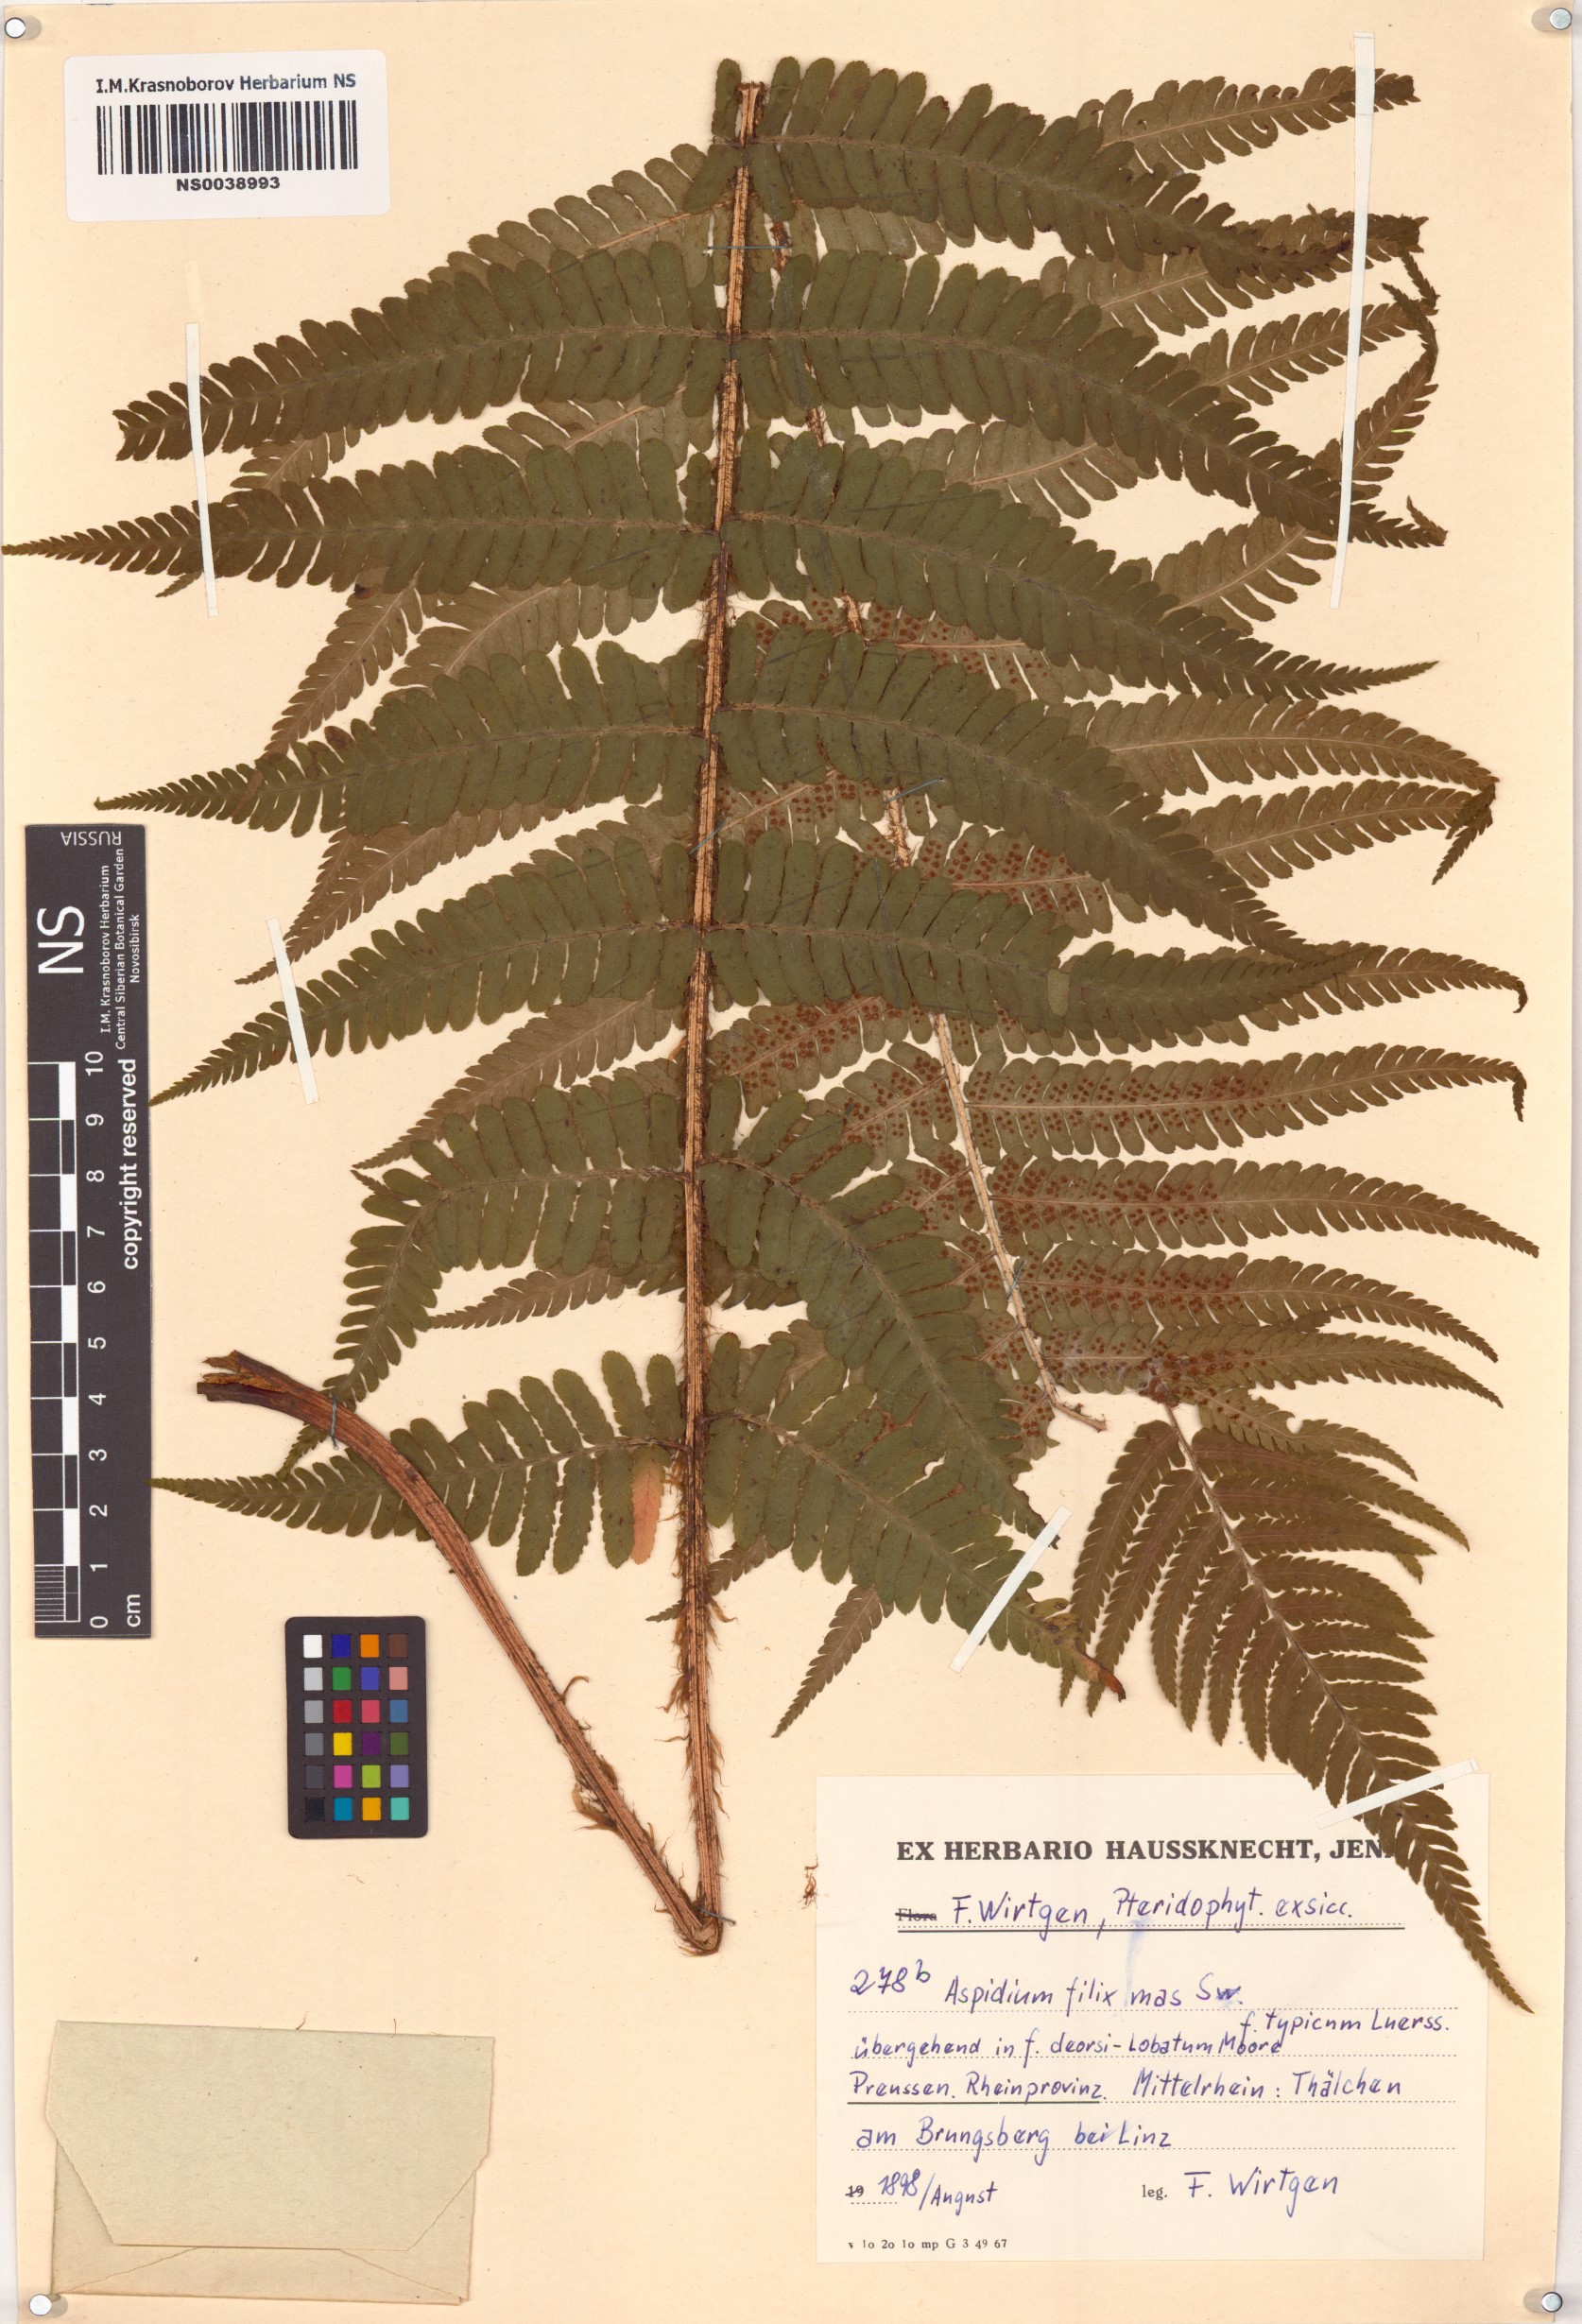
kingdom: Plantae
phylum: Tracheophyta
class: Polypodiopsida
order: Polypodiales
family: Dryopteridaceae
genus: Dryopteris
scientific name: Dryopteris filix-mas
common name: Male fern
